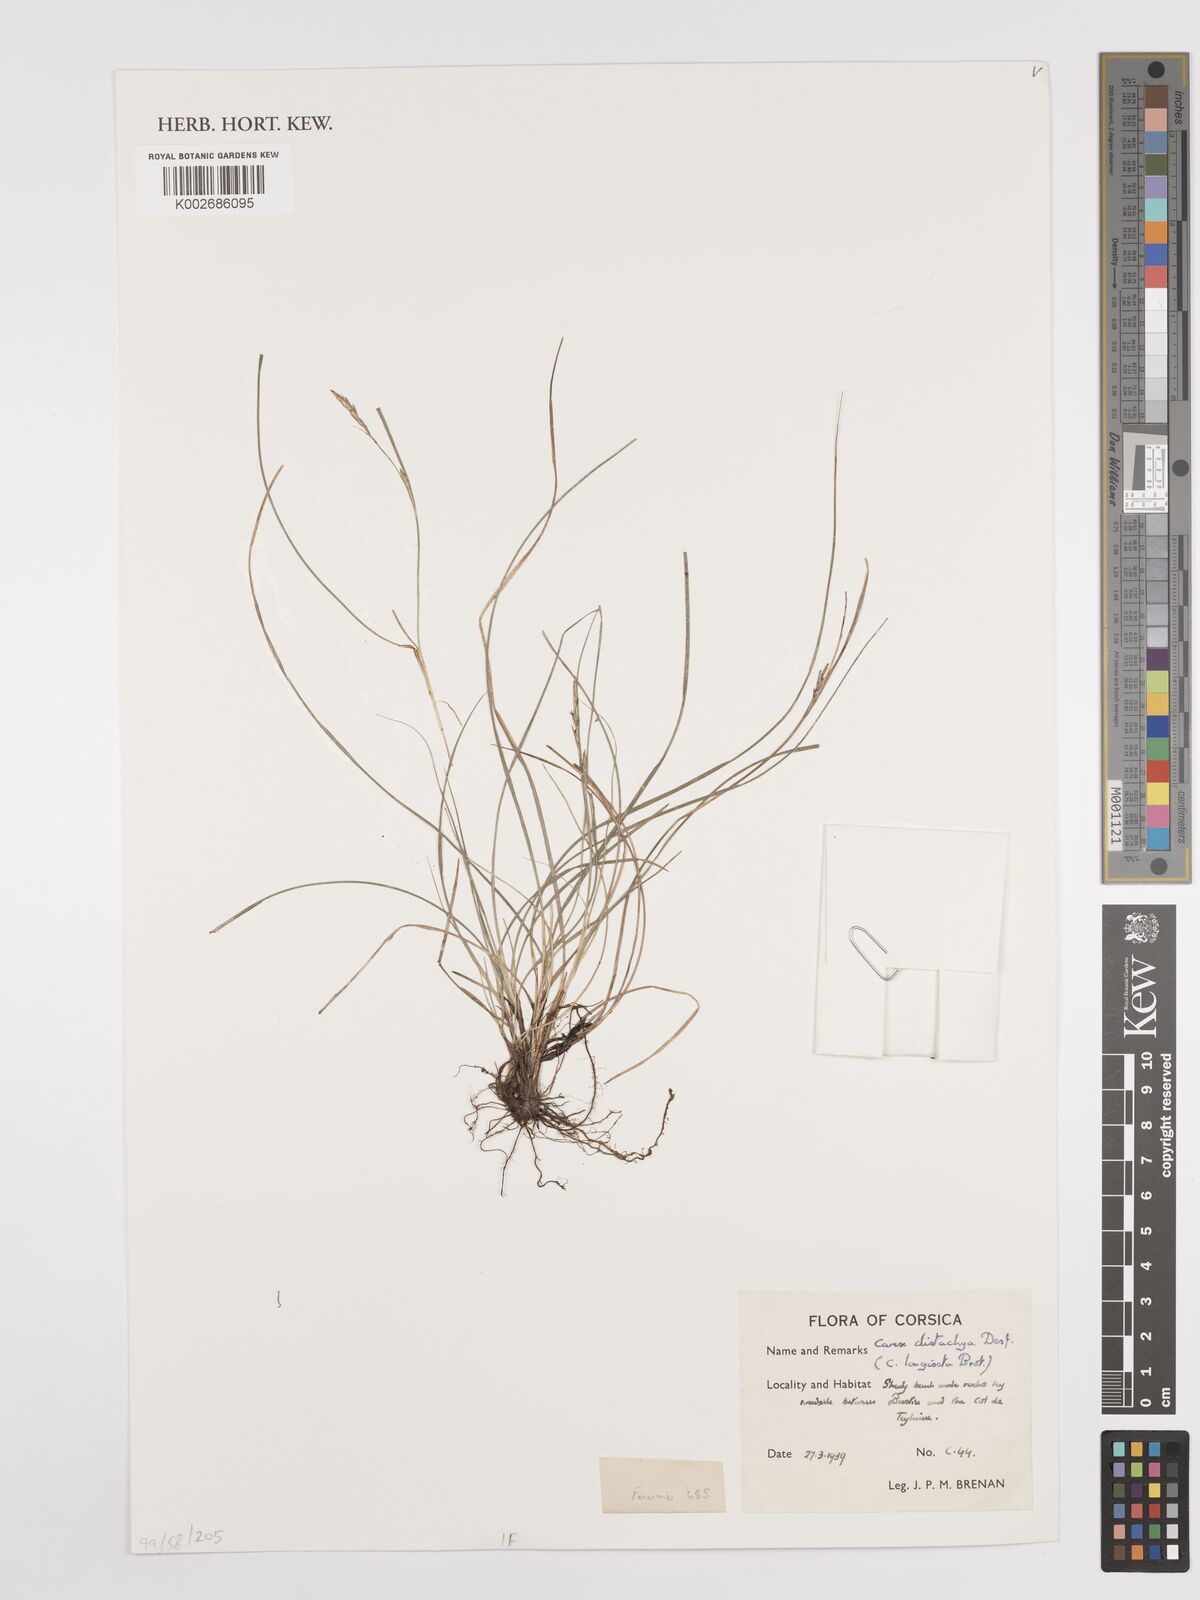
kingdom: Plantae
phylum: Tracheophyta
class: Liliopsida
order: Poales
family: Cyperaceae
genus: Carex
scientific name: Carex distachya
